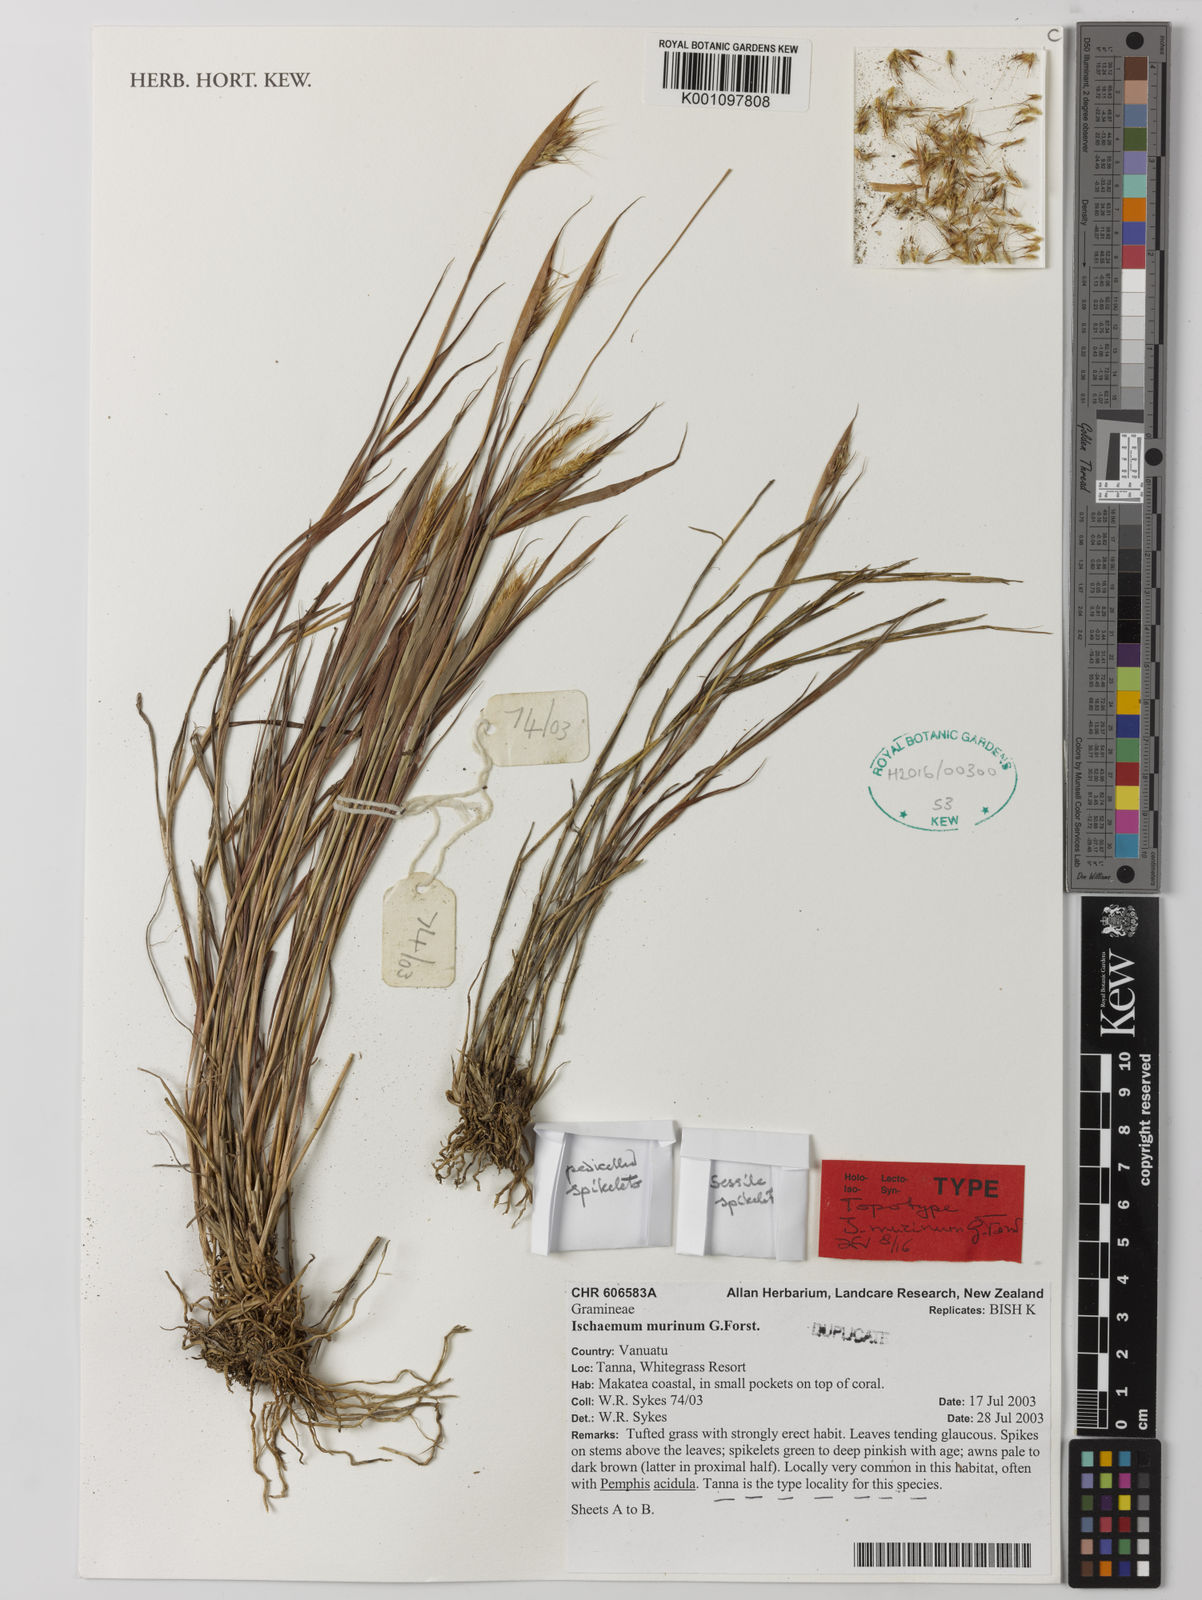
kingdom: Plantae
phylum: Tracheophyta
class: Liliopsida
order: Poales
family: Poaceae
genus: Ischaemum
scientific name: Ischaemum murinum
